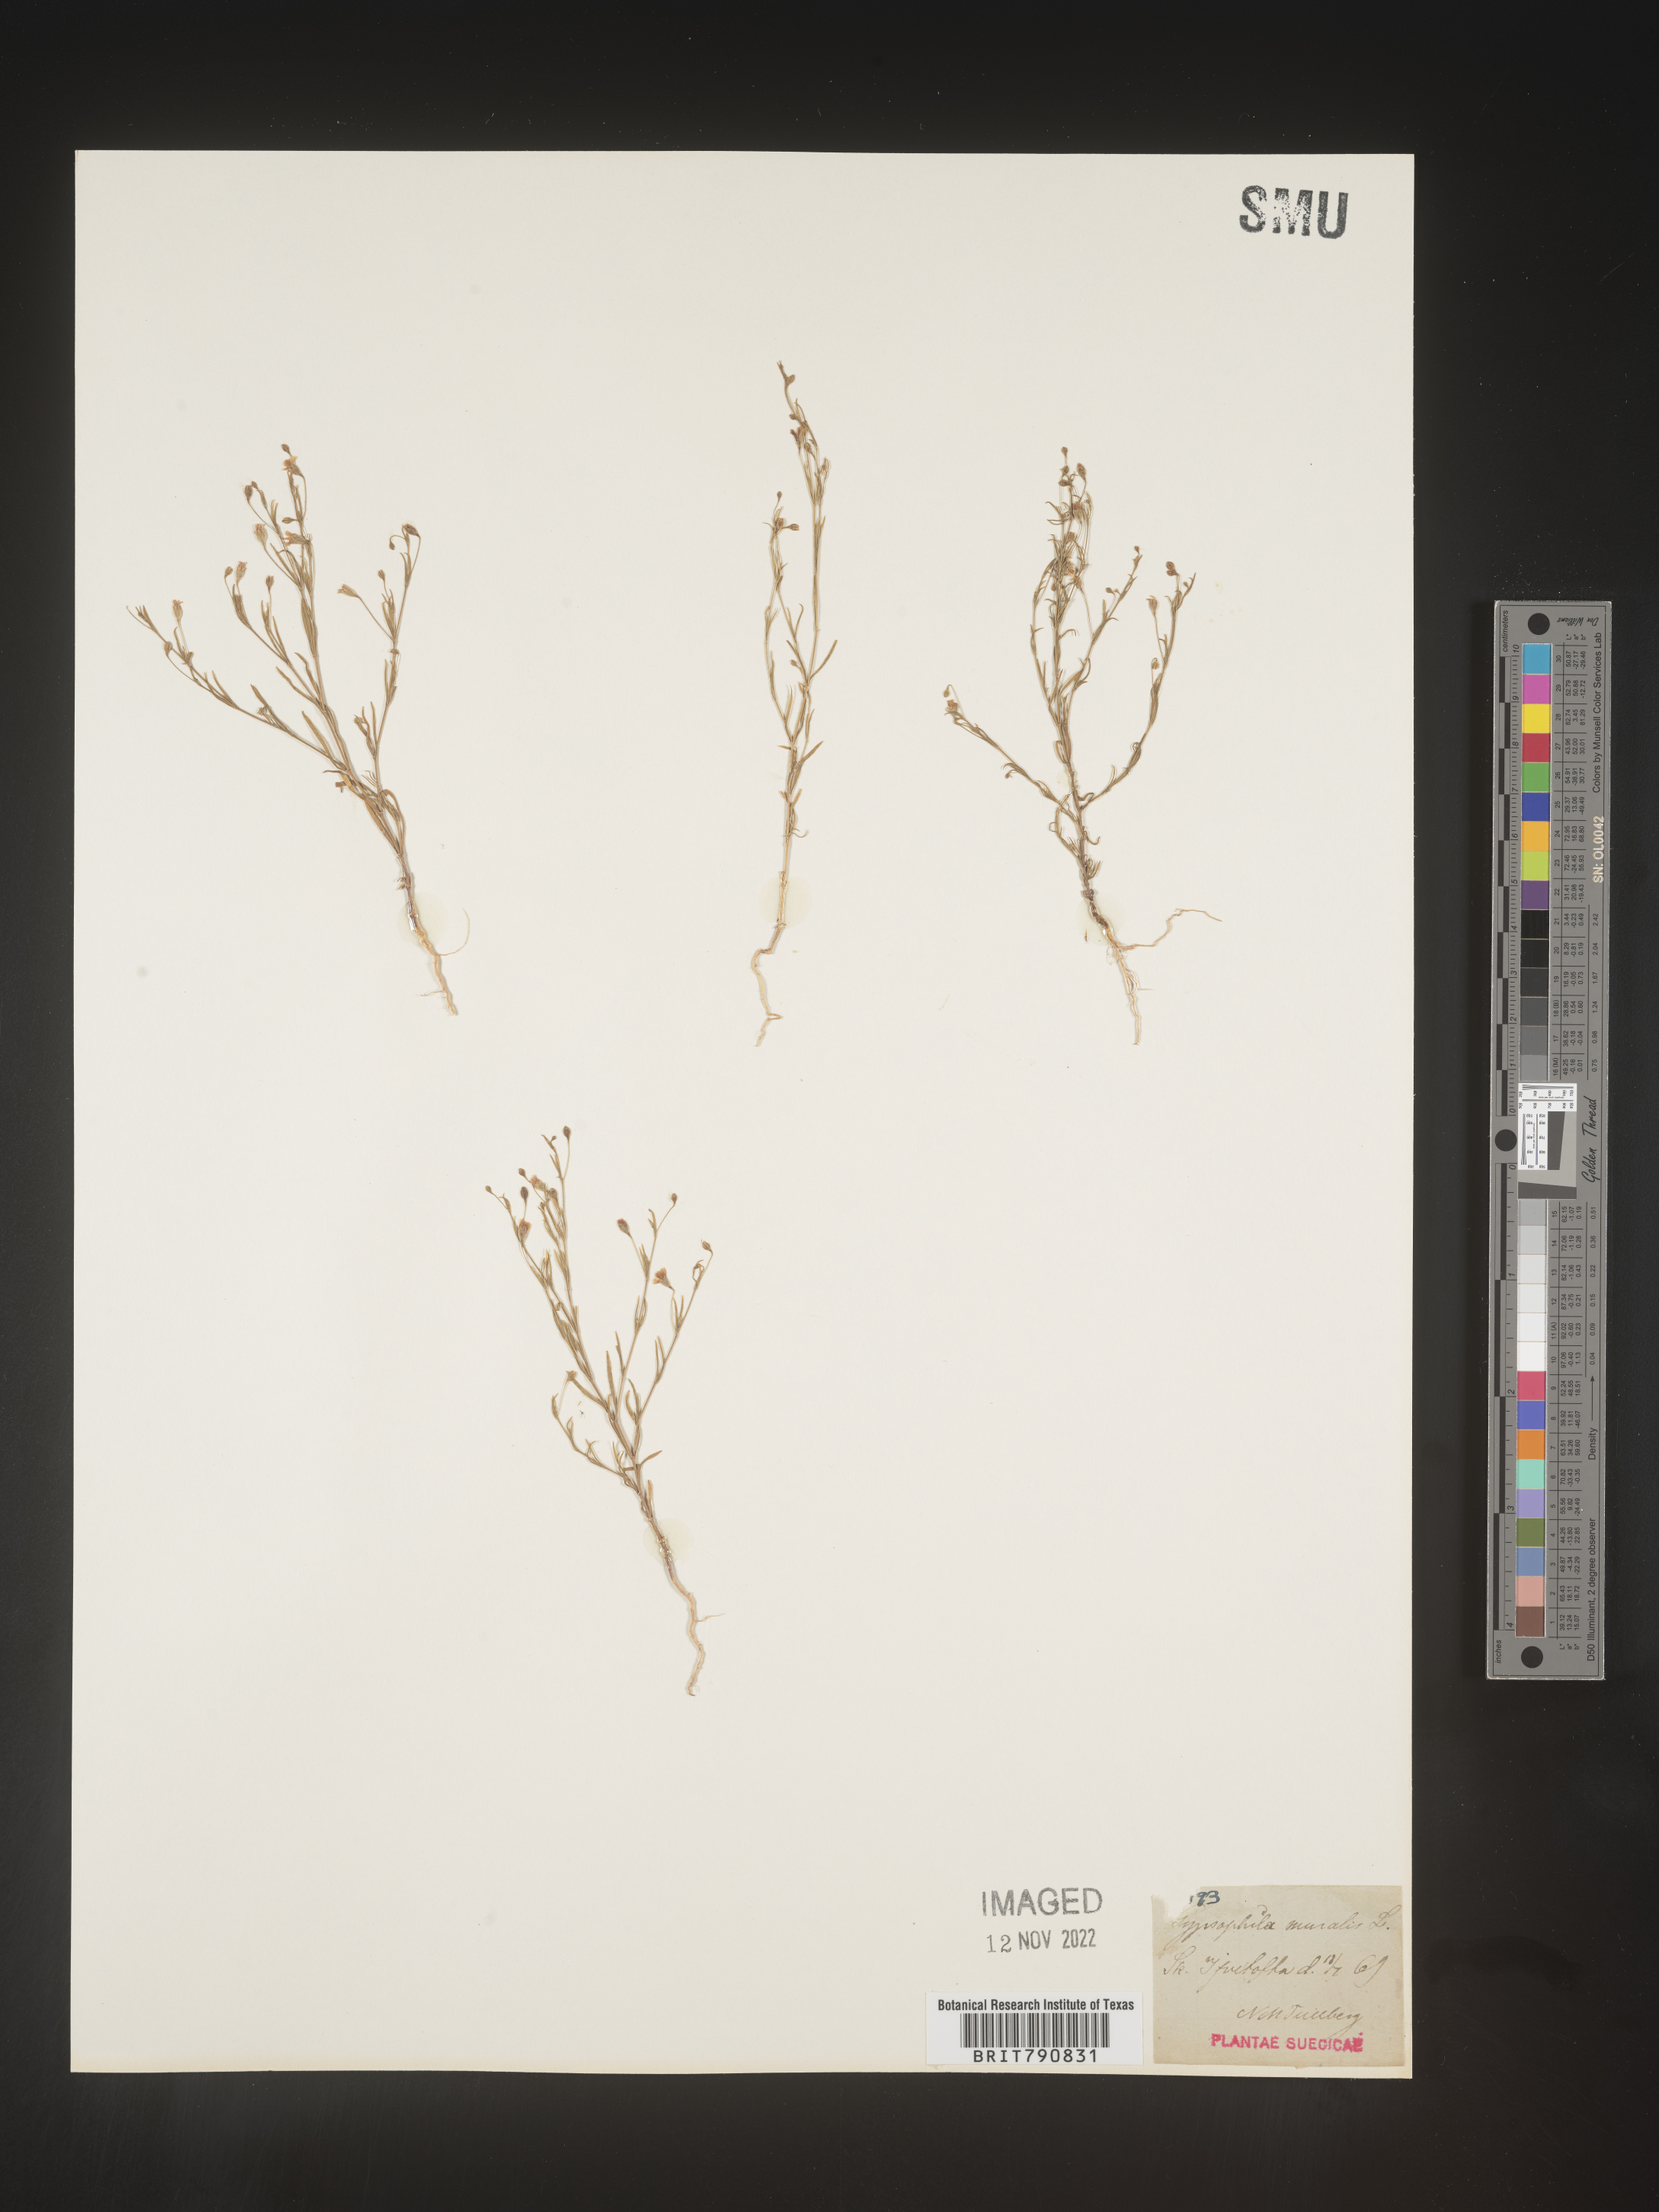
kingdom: Plantae
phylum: Tracheophyta
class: Magnoliopsida
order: Caryophyllales
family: Caryophyllaceae
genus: Gypsophila
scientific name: Gypsophila
